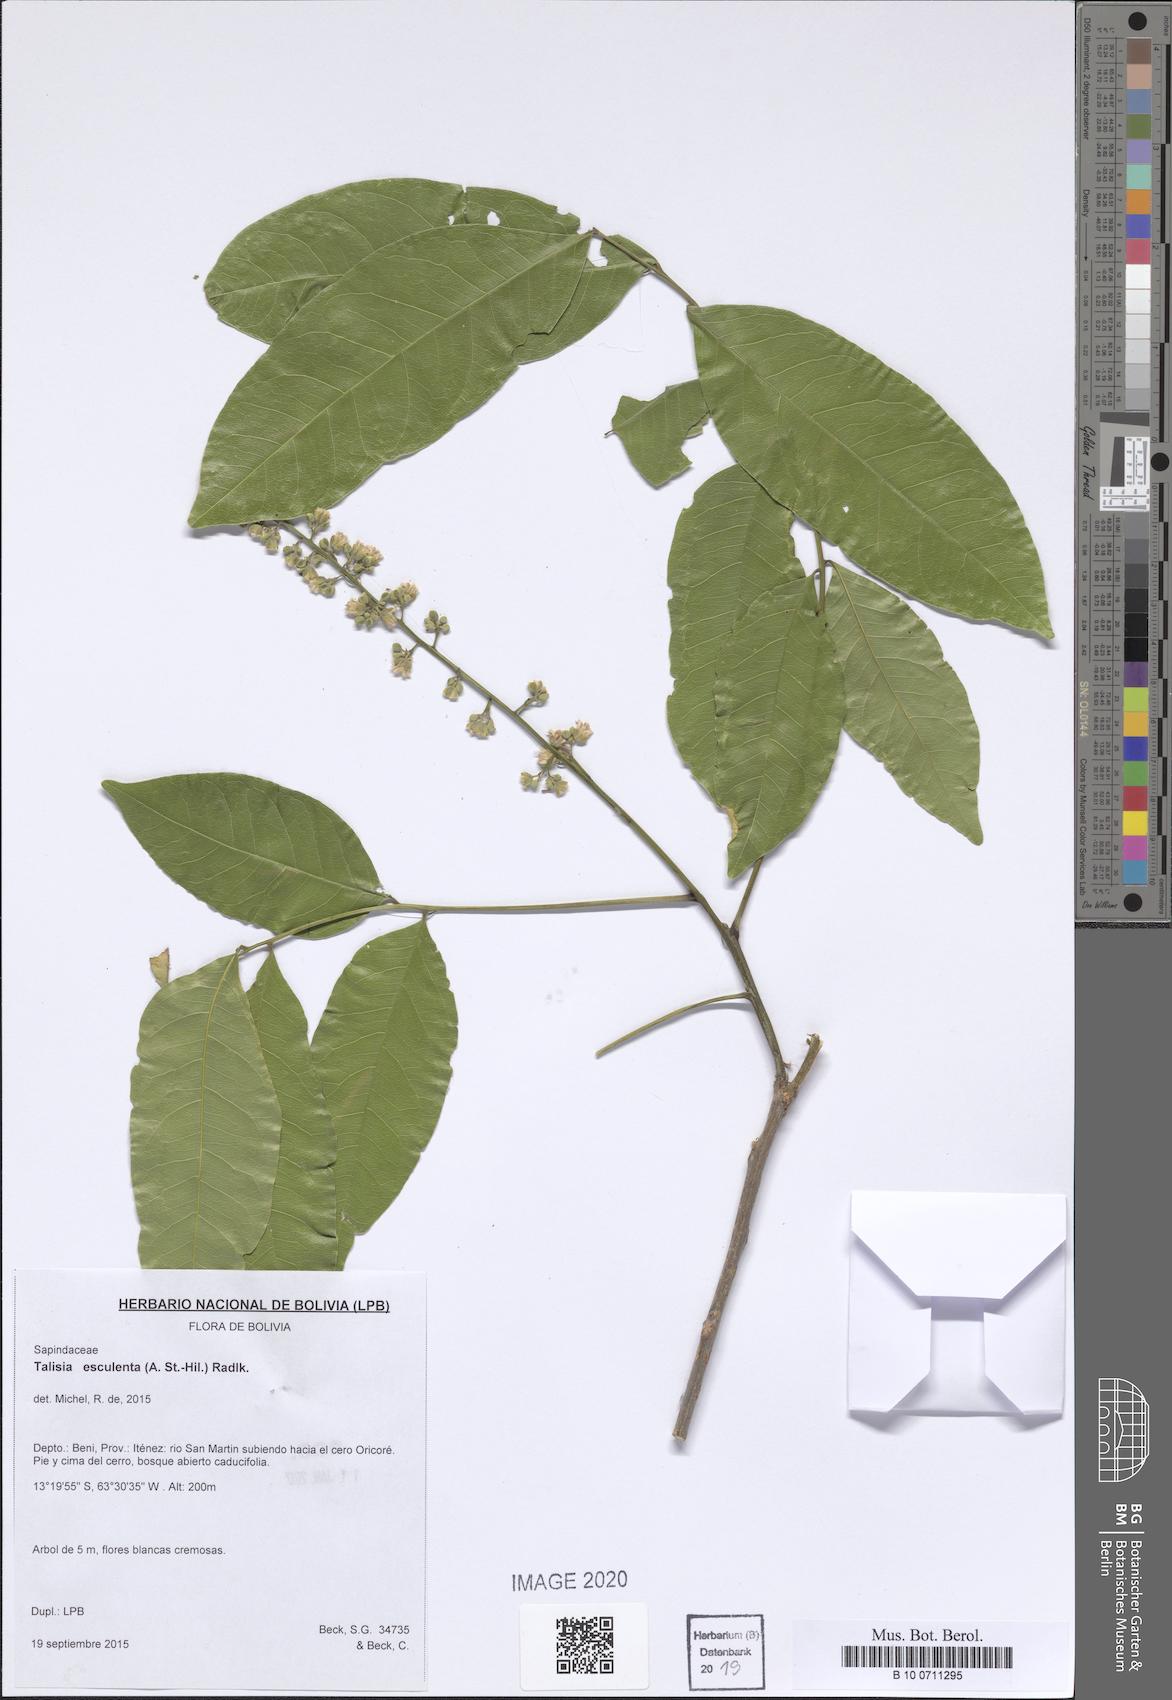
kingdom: Plantae
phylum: Tracheophyta
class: Magnoliopsida
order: Sapindales
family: Sapindaceae
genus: Talisia
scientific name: Talisia esculenta
